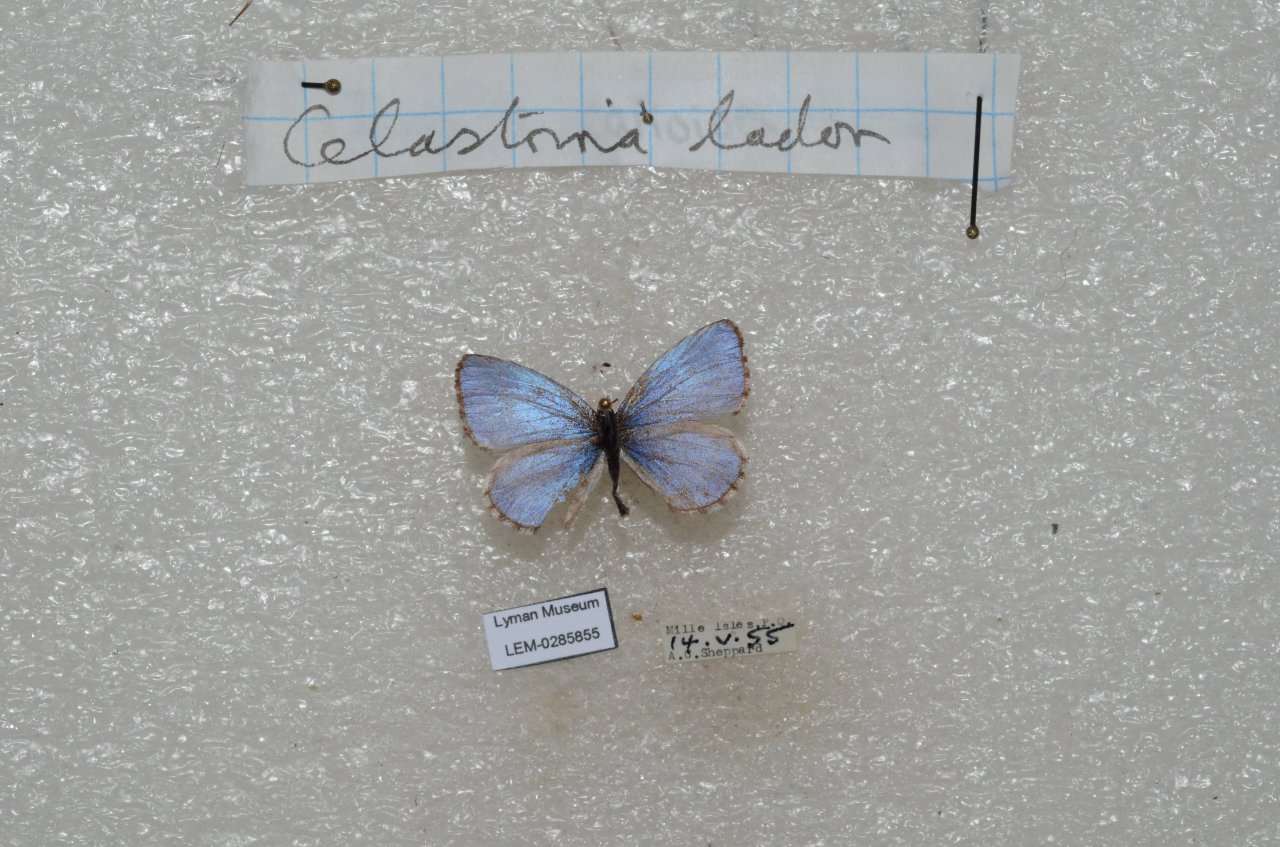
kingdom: Animalia
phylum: Arthropoda
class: Insecta
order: Lepidoptera
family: Lycaenidae
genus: Celastrina
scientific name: Celastrina lucia
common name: Northern Spring Azure
